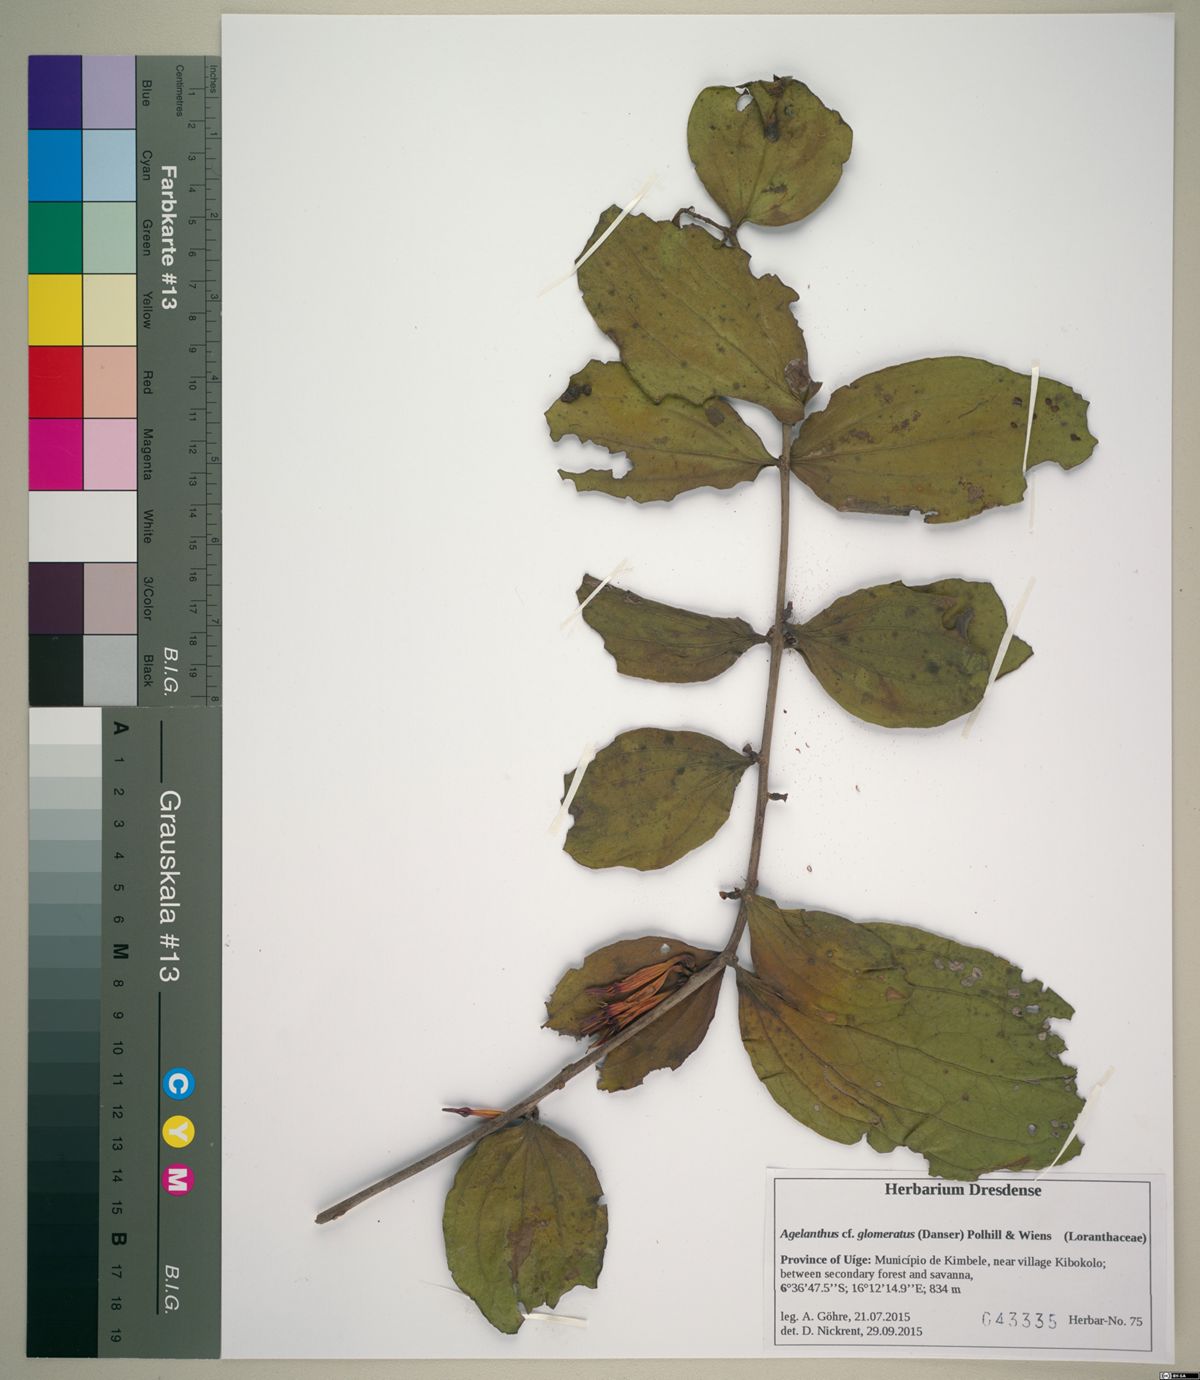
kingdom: Plantae
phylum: Tracheophyta
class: Magnoliopsida
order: Santalales
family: Loranthaceae
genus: Agelanthus
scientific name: Agelanthus glomeratus
